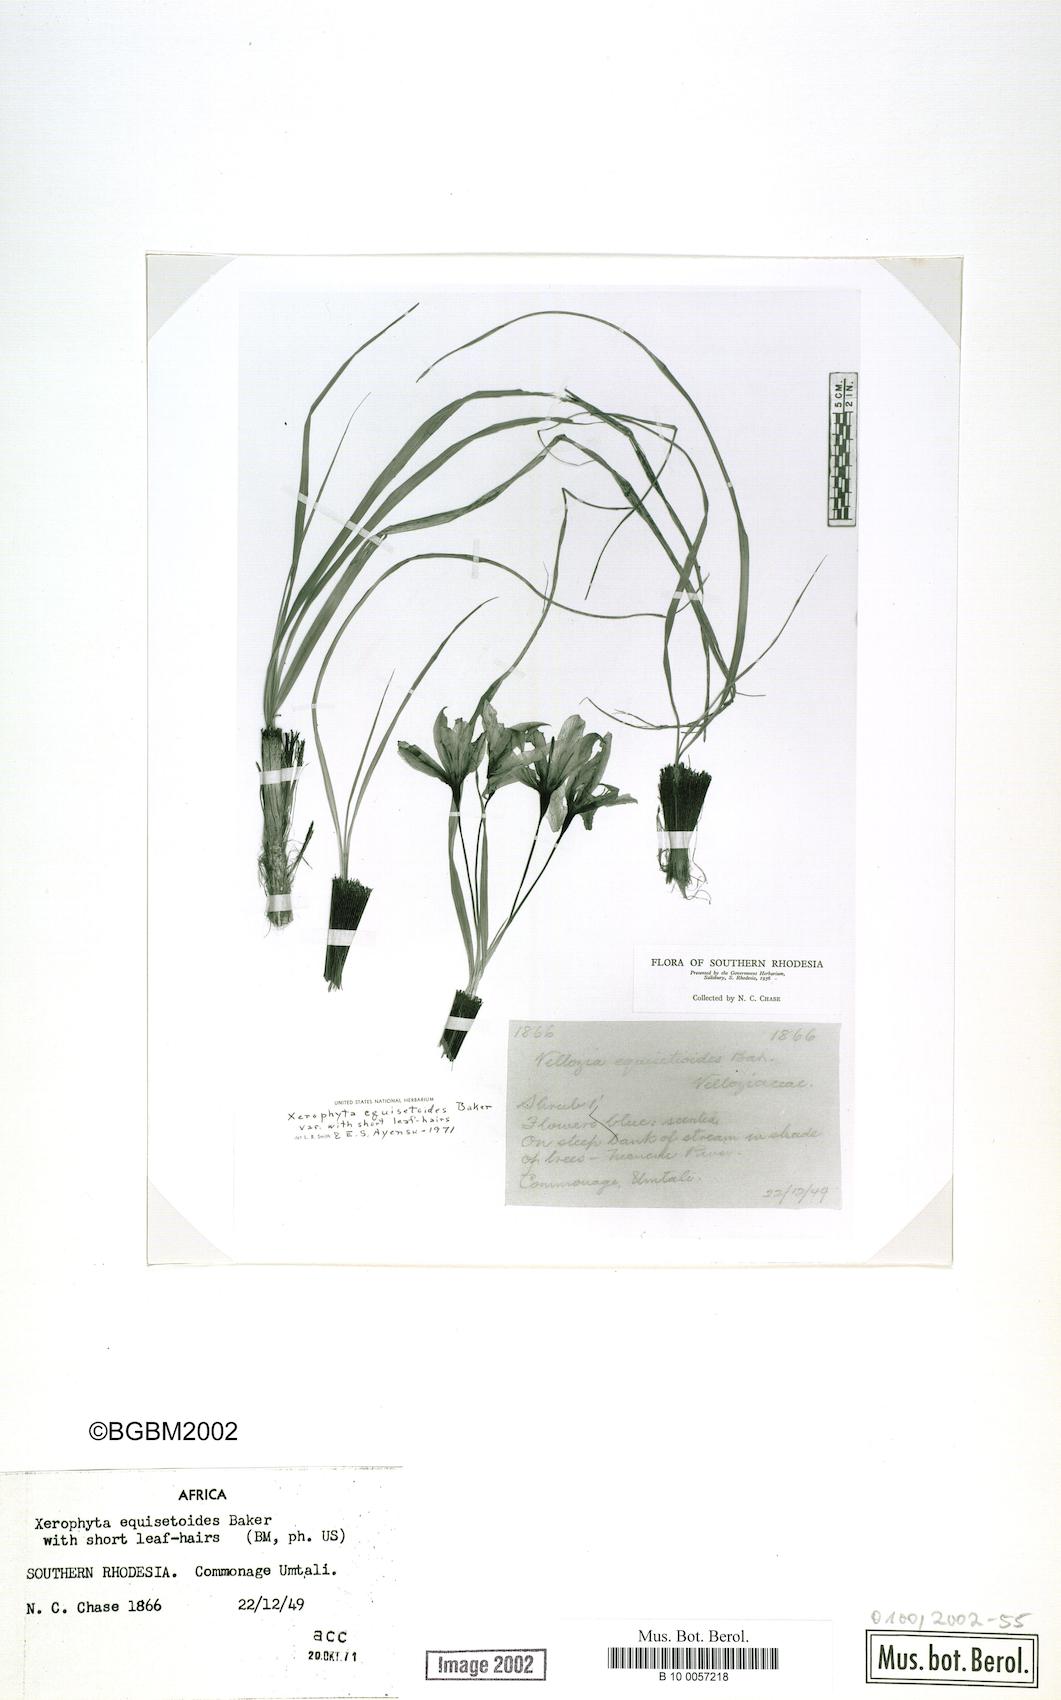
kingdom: Plantae
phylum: Tracheophyta
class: Liliopsida
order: Pandanales
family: Velloziaceae
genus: Xerophyta
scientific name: Xerophyta equisetoides
